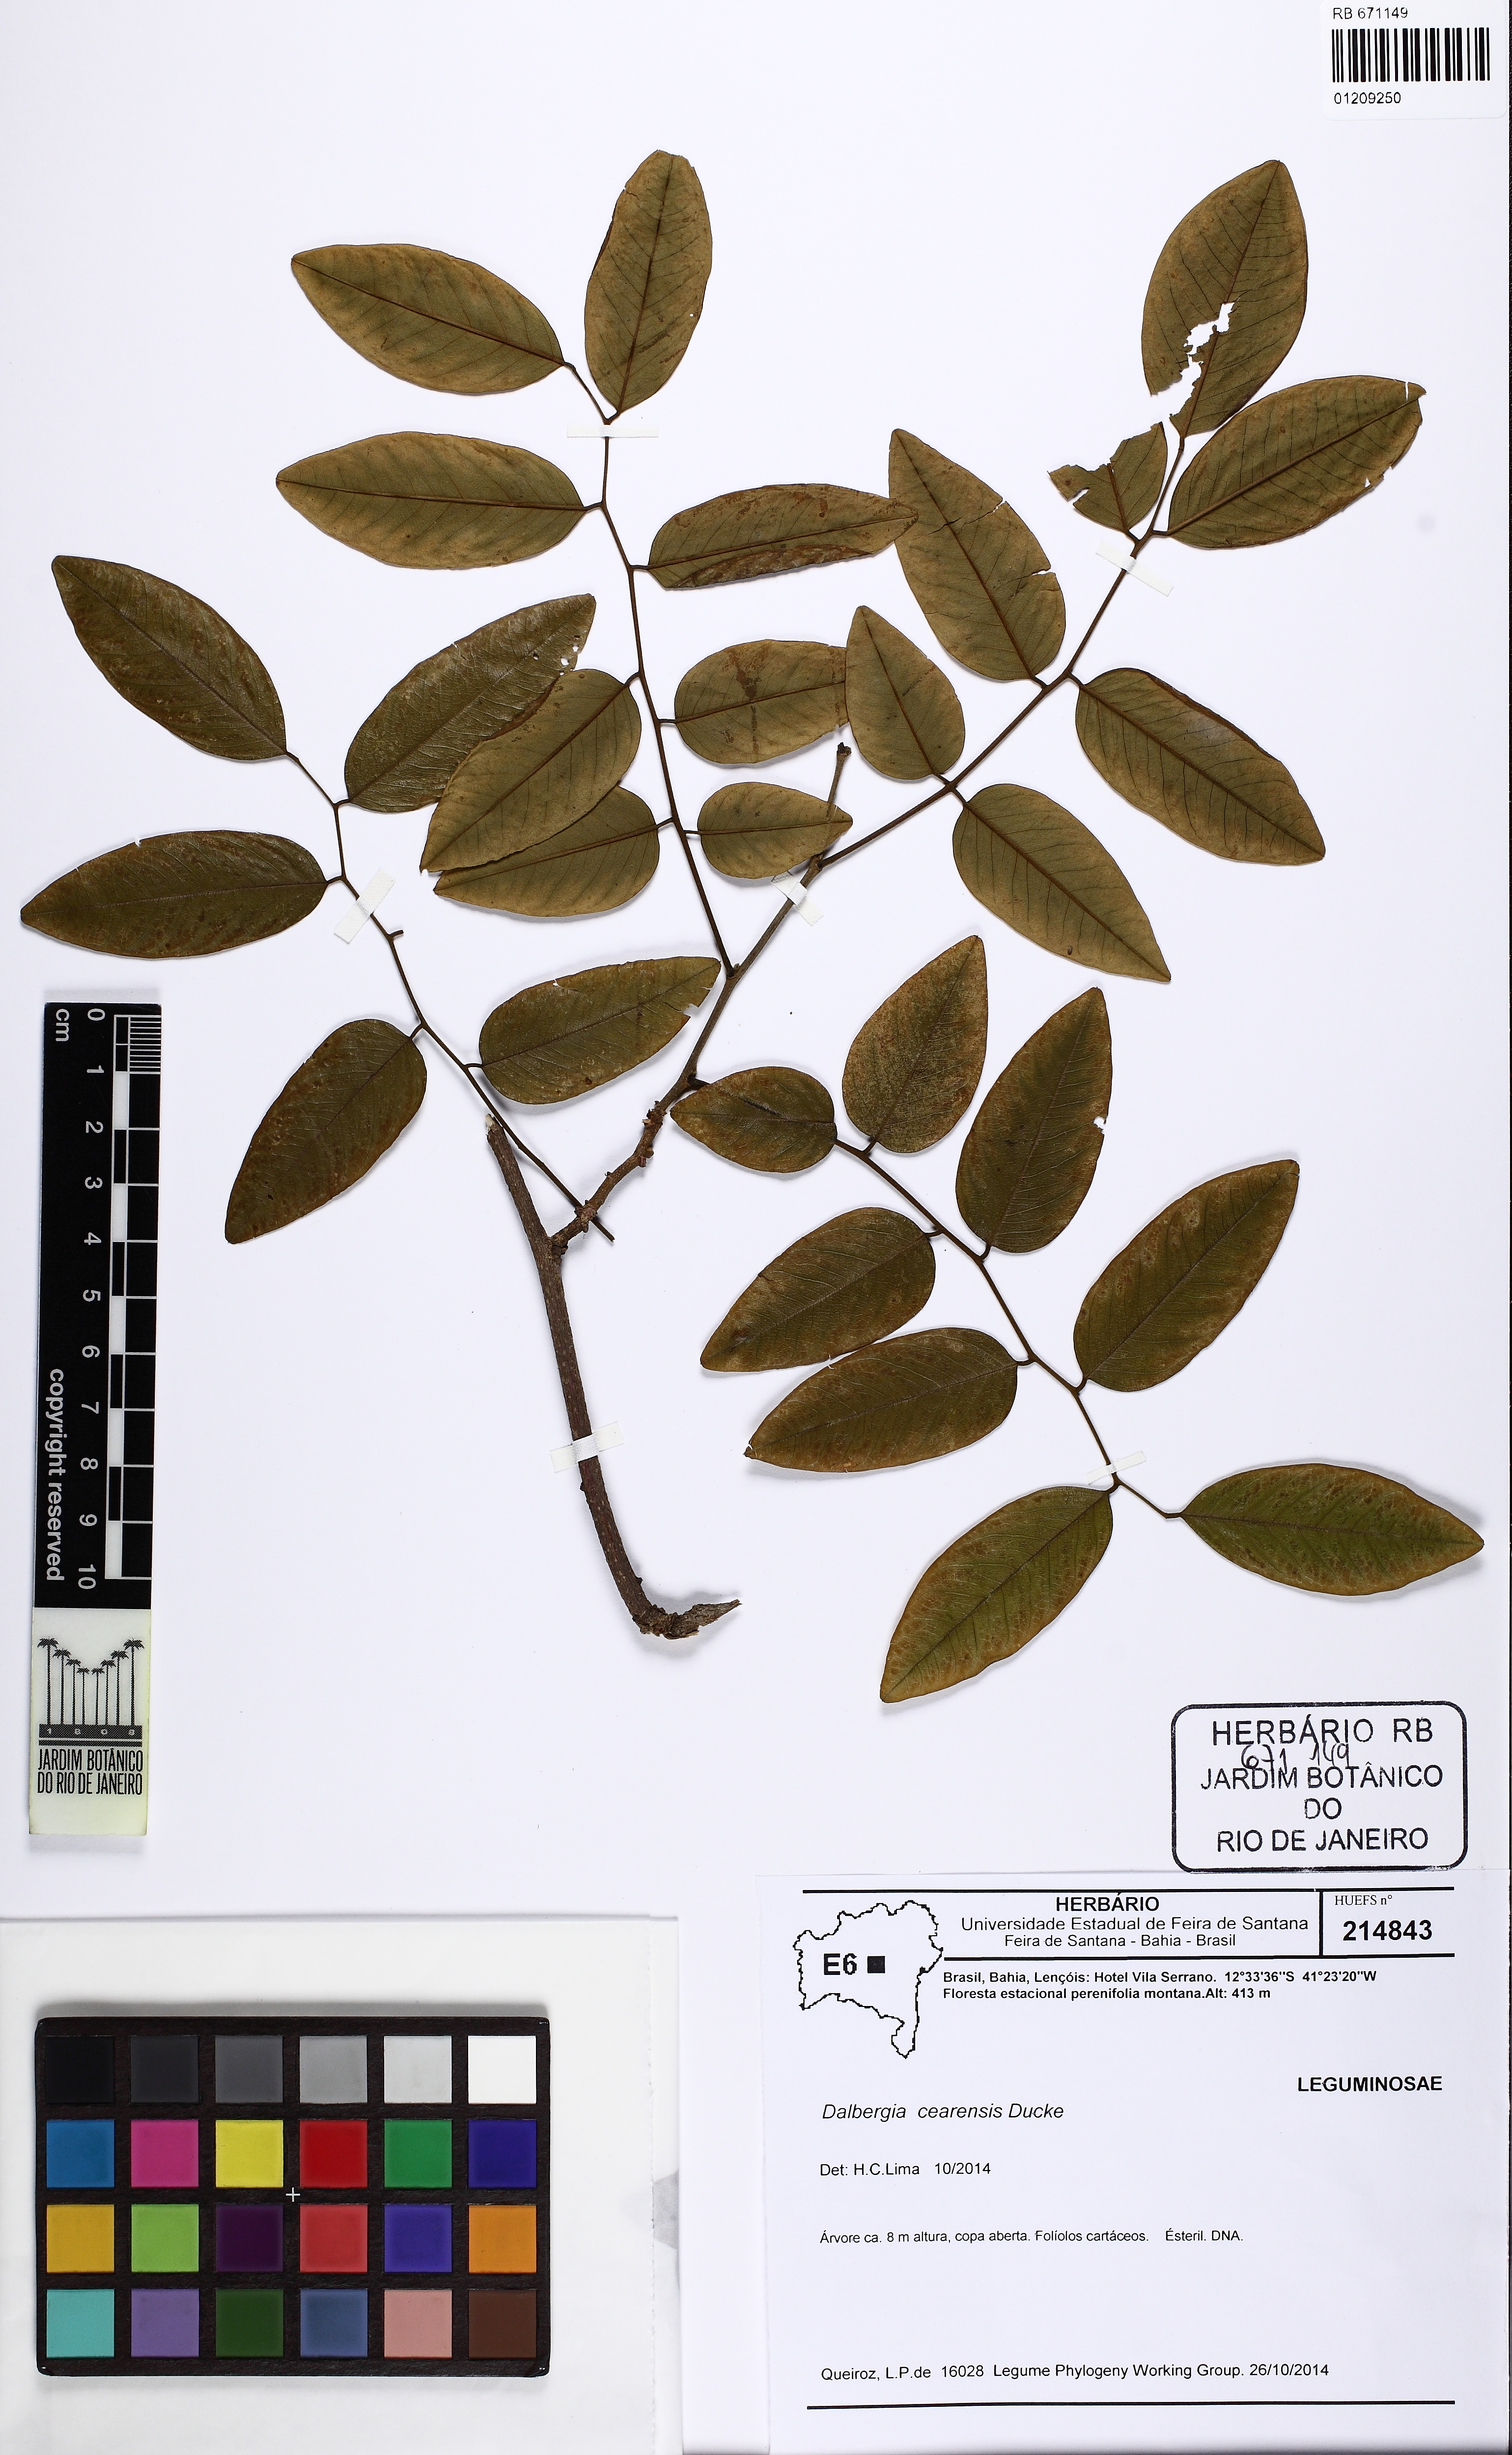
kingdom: Plantae
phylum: Tracheophyta
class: Magnoliopsida
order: Fabales
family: Fabaceae
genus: Dalbergia
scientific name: Dalbergia cearensis
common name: Brazilian-king-wood
